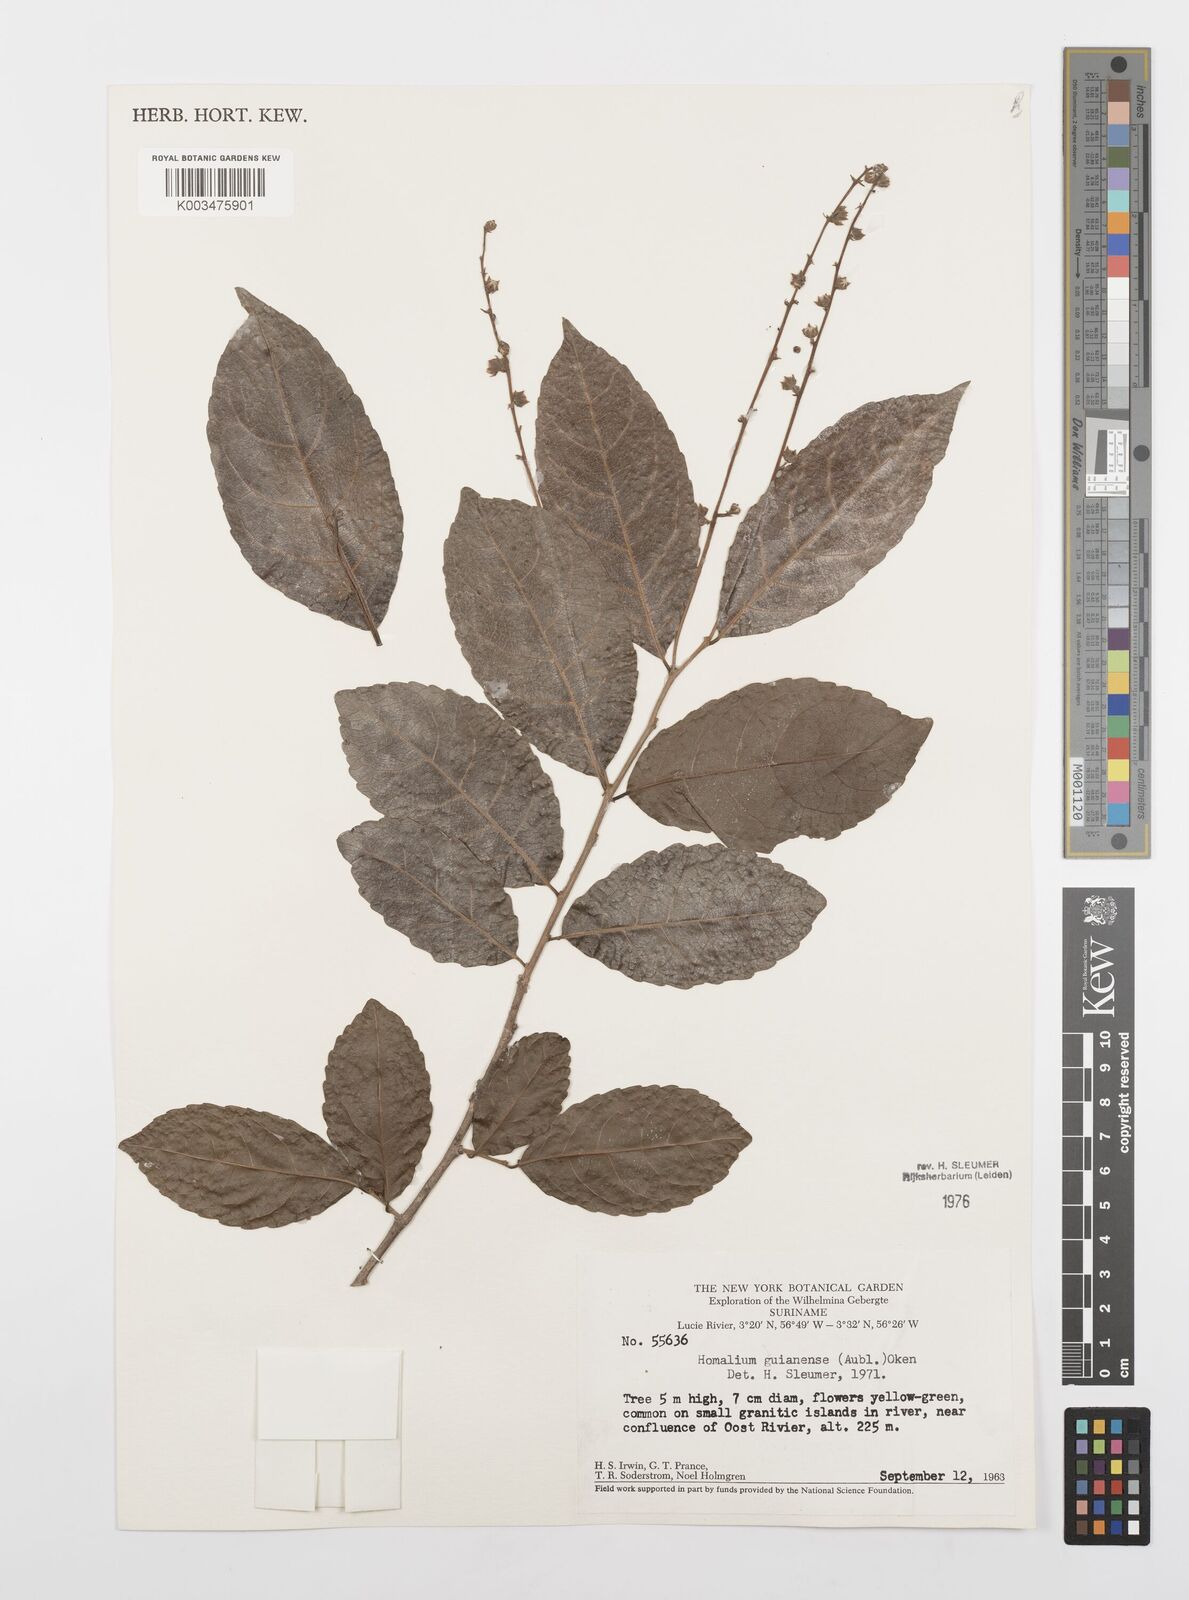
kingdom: Plantae
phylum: Tracheophyta
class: Magnoliopsida
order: Malpighiales
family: Salicaceae
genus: Homalium
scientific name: Homalium guianense
